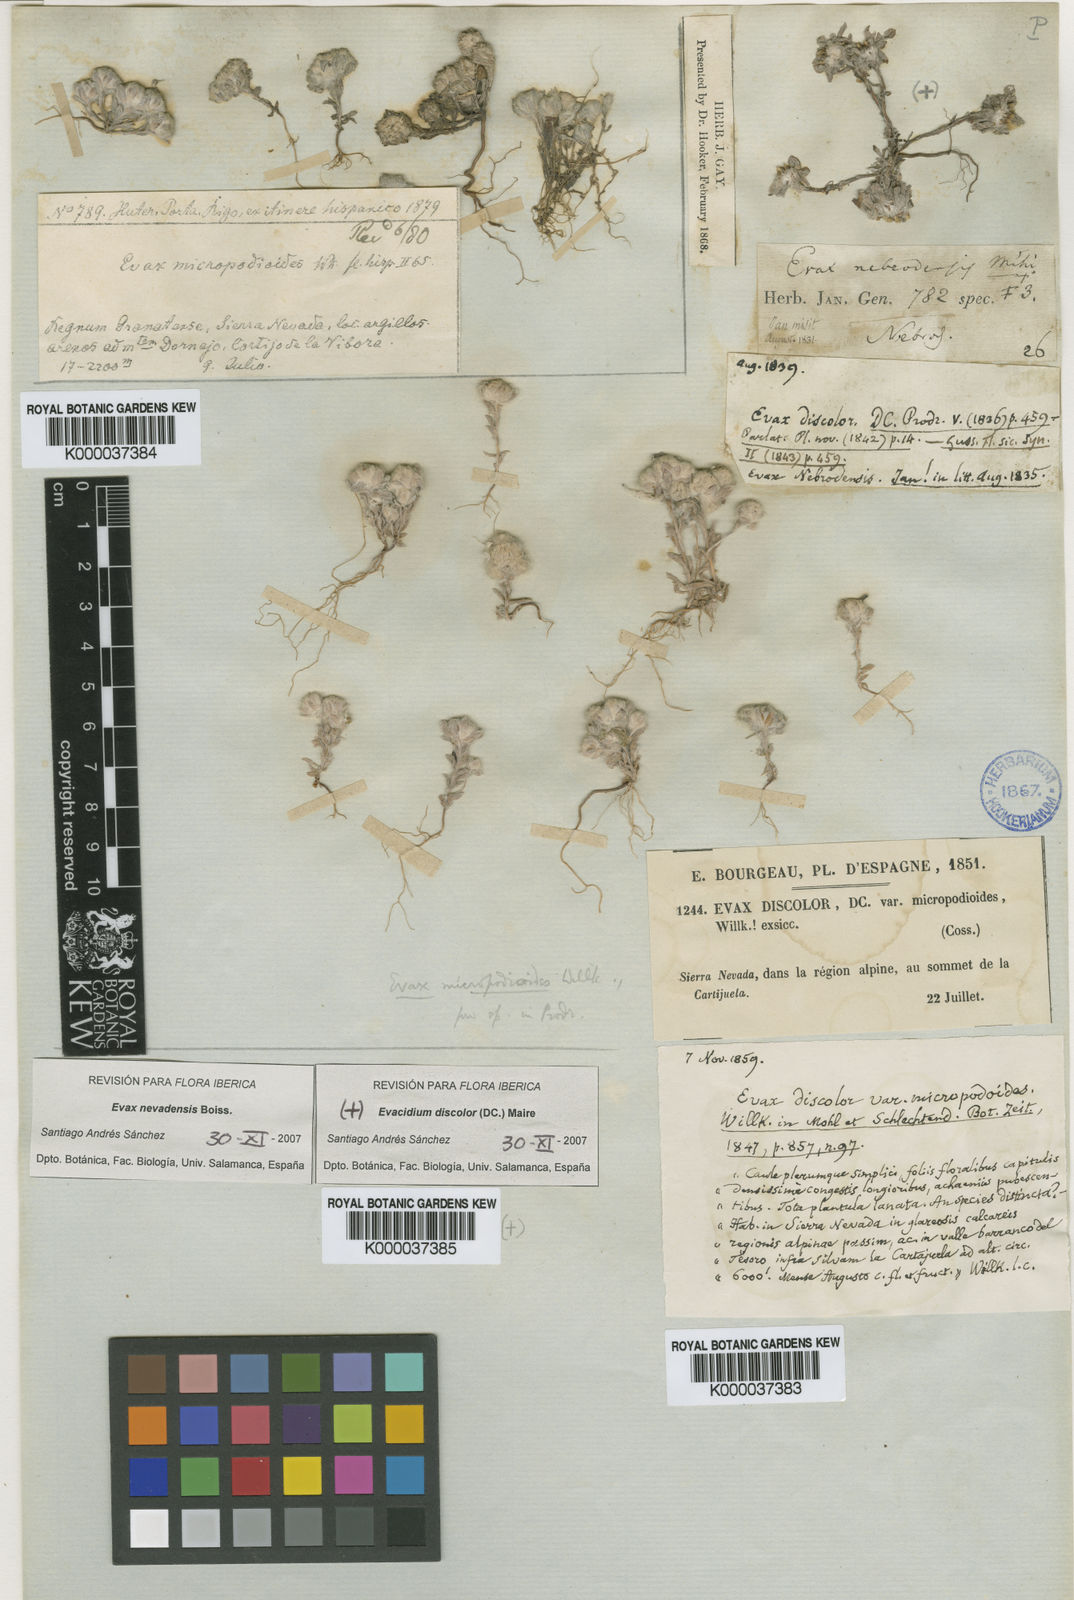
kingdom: Plantae
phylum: Tracheophyta
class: Magnoliopsida
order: Asterales
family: Asteraceae
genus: Filago
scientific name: Filago discolor
